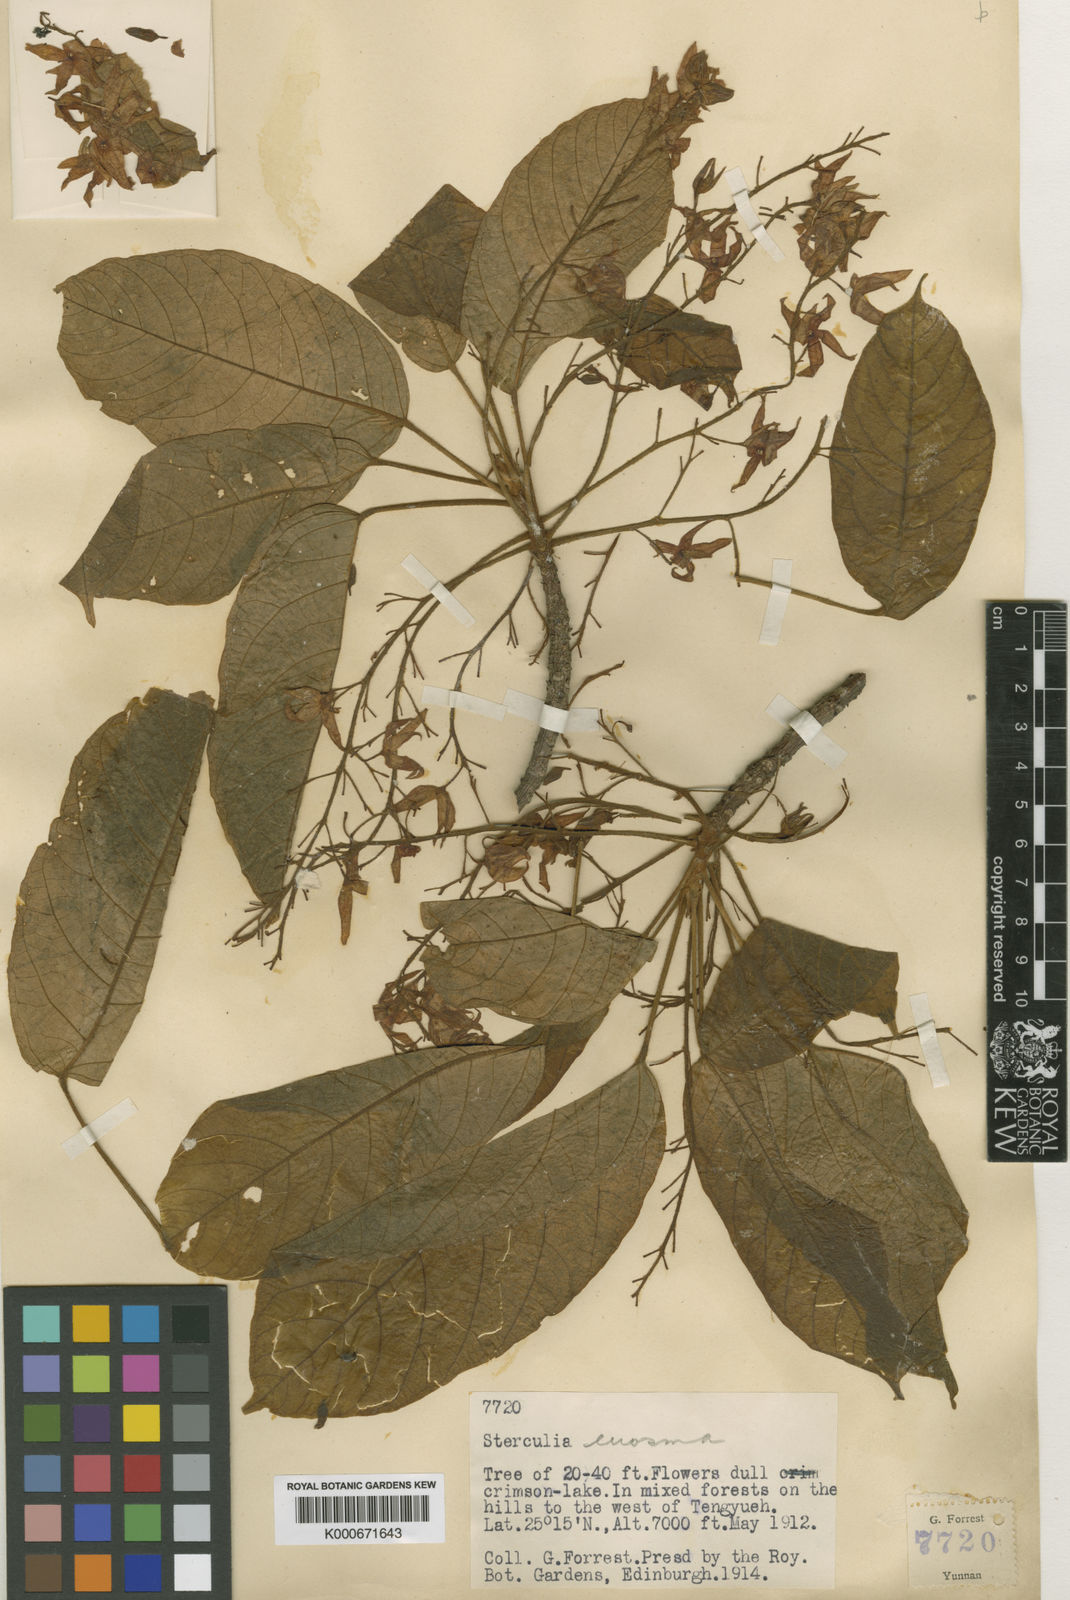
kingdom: Plantae
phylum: Tracheophyta
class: Magnoliopsida
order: Malvales
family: Malvaceae
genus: Sterculia
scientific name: Sterculia euosma
